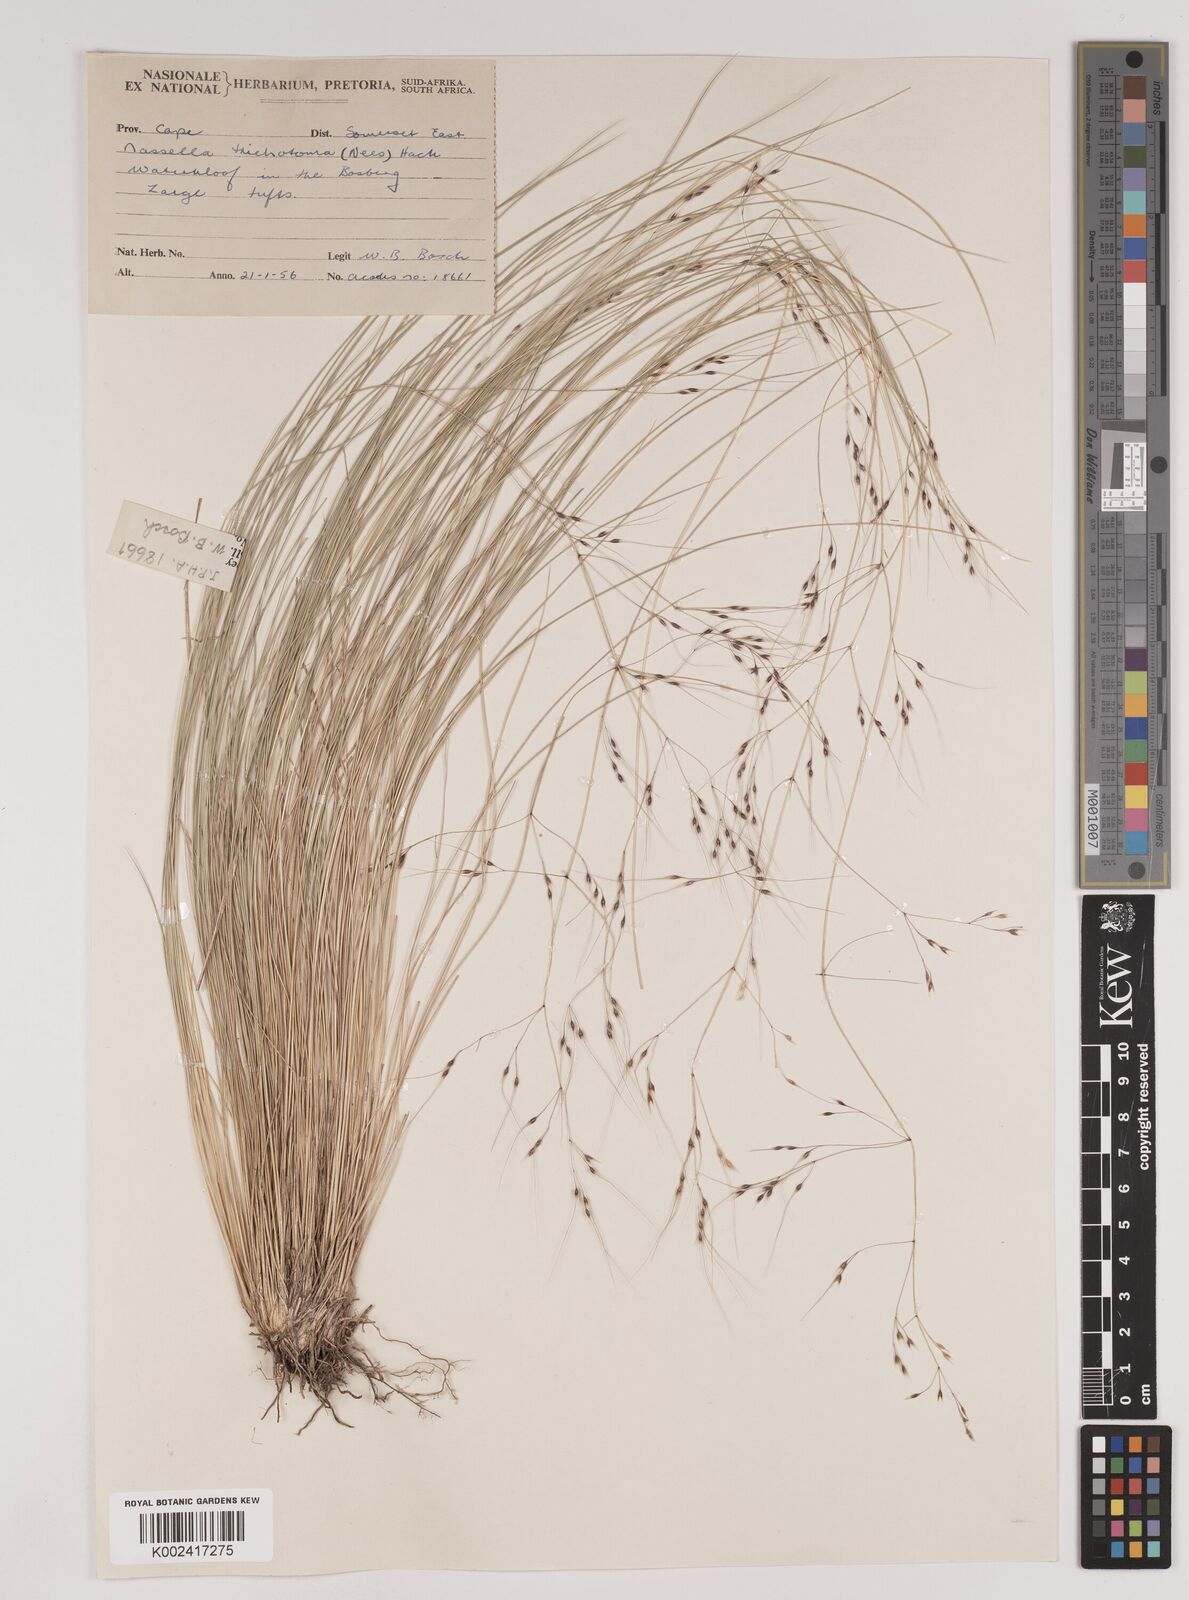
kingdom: Plantae
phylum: Tracheophyta
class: Liliopsida
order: Poales
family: Poaceae
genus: Nassella
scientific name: Nassella trichotoma
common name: Serrated tussock grass
